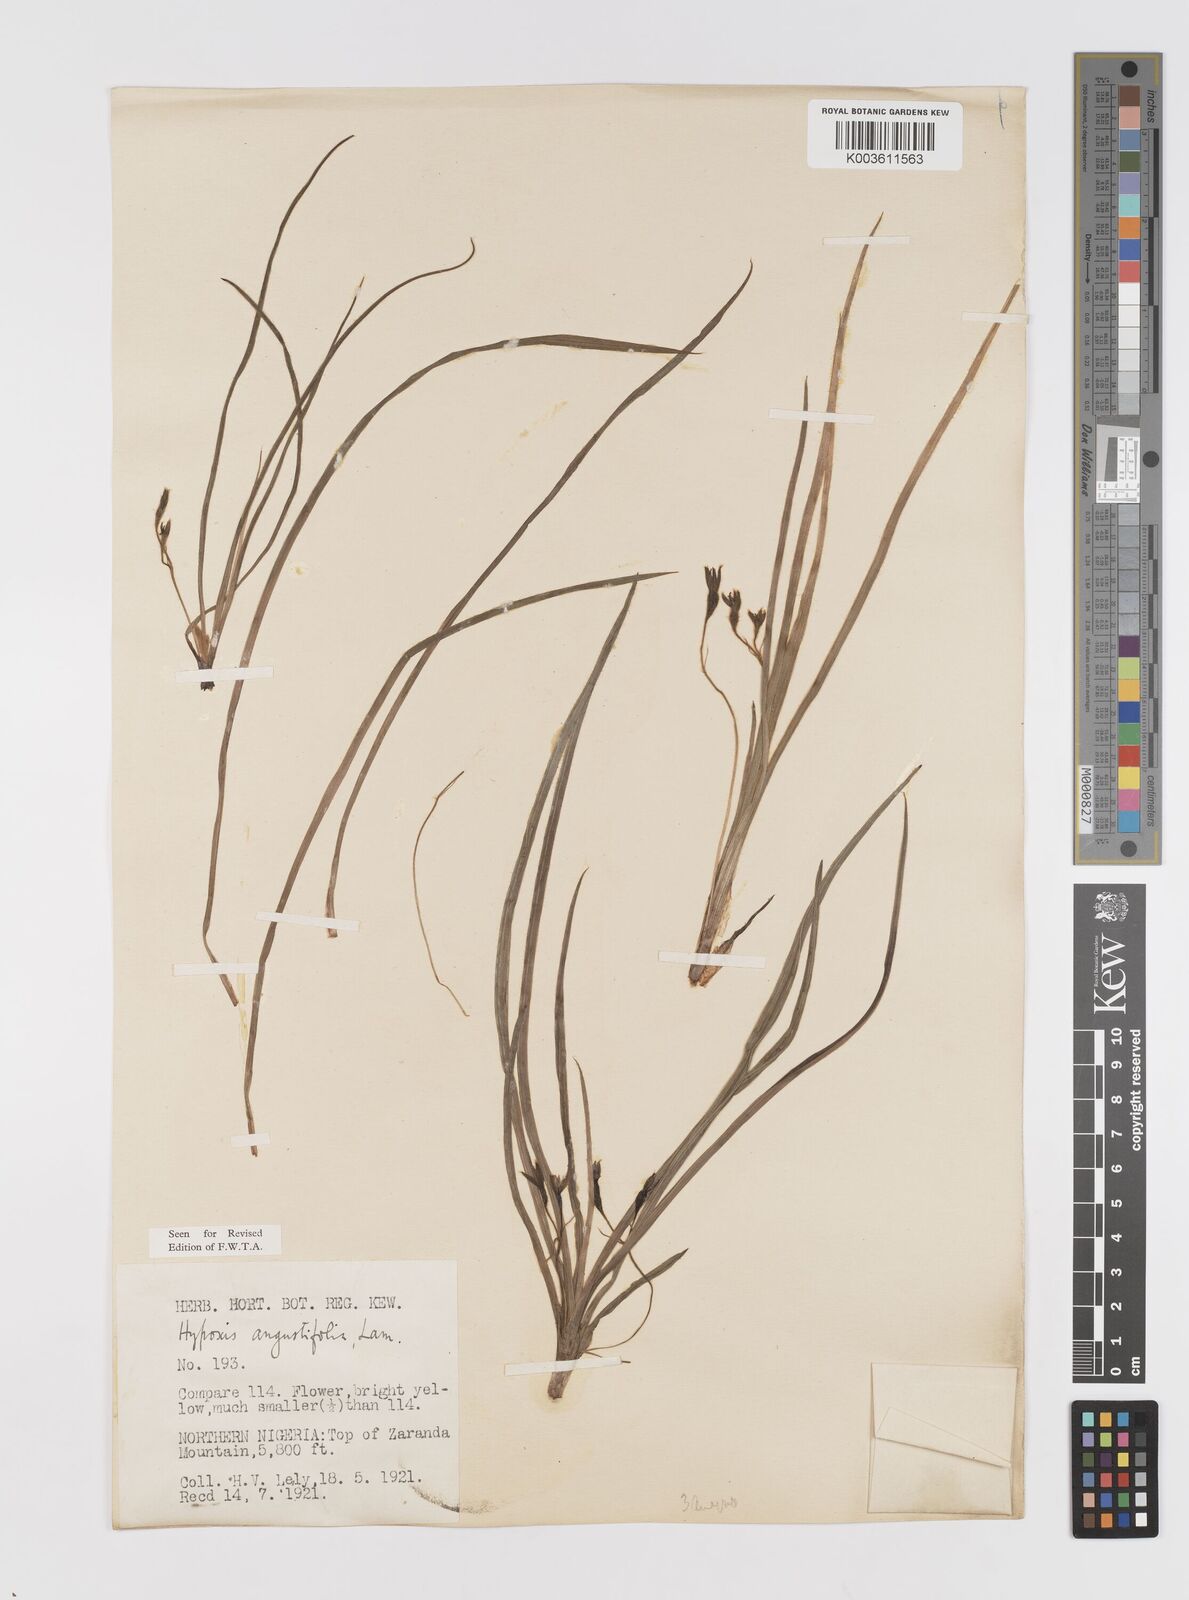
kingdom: Plantae
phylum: Tracheophyta
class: Liliopsida
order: Asparagales
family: Hypoxidaceae
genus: Hypoxis
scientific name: Hypoxis angustifolia
